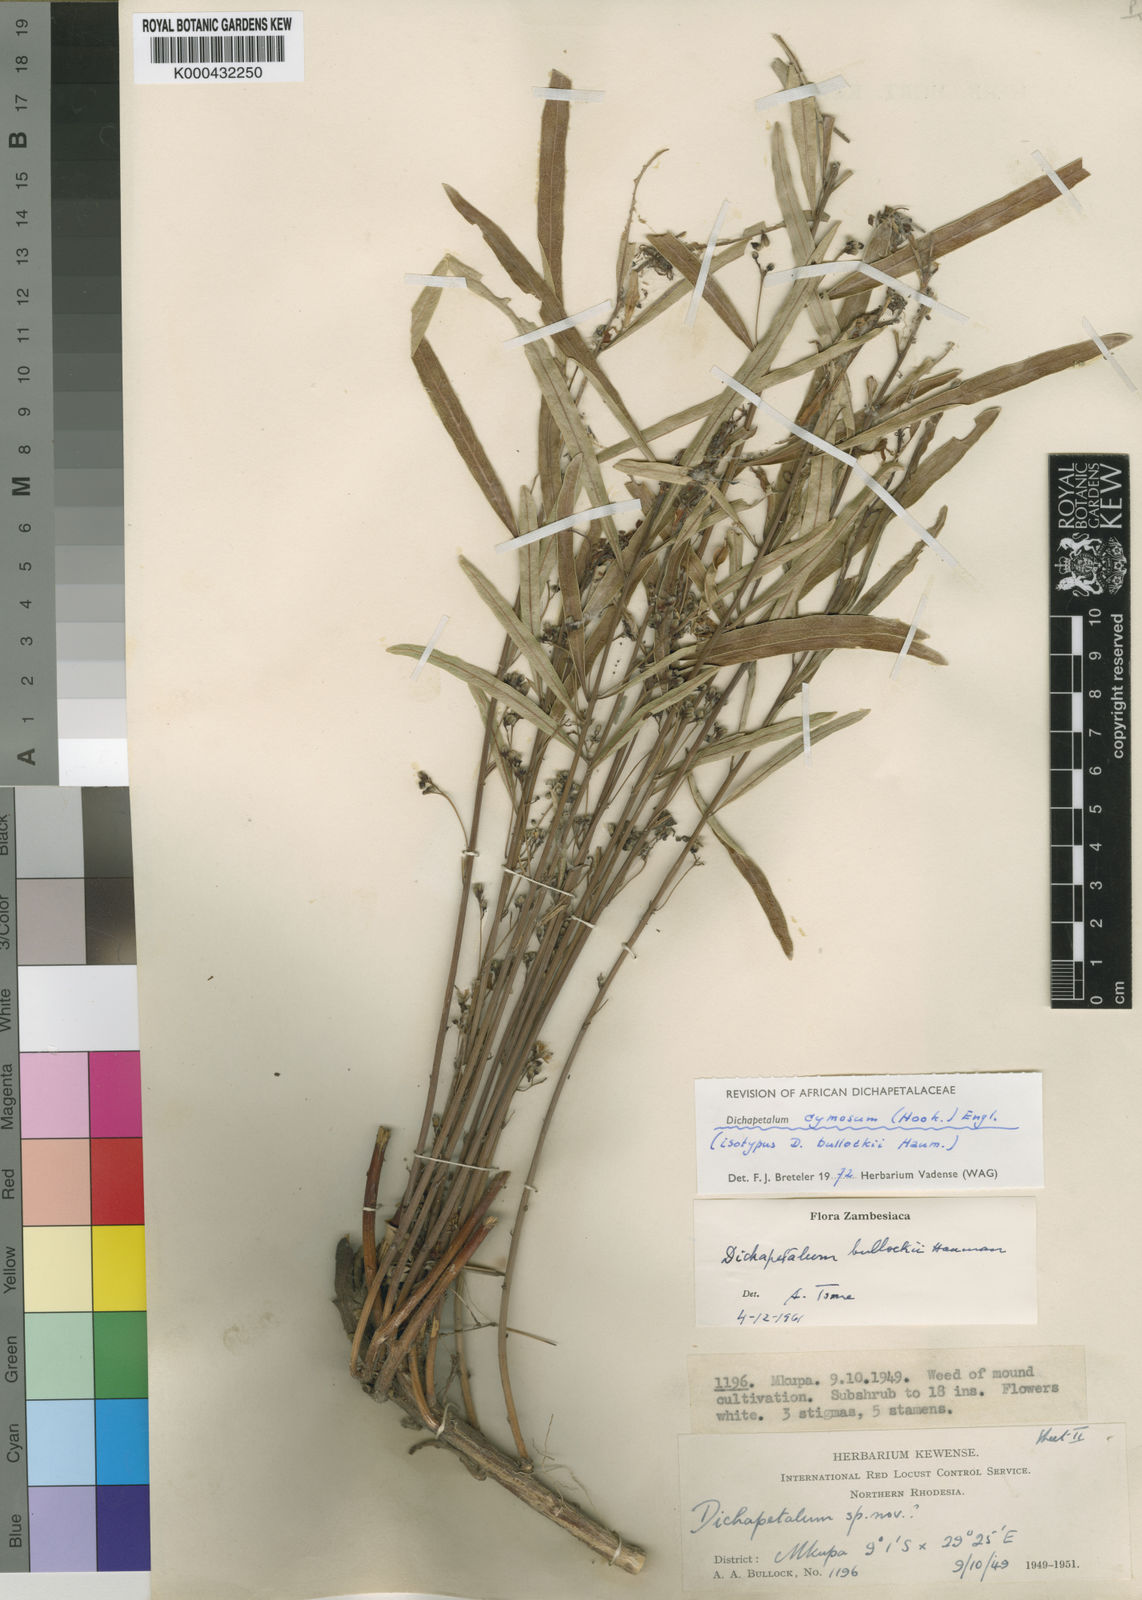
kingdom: Plantae
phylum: Tracheophyta
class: Magnoliopsida
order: Malpighiales
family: Dichapetalaceae
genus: Dichapetalum
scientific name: Dichapetalum cymosum
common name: Poison leaf
